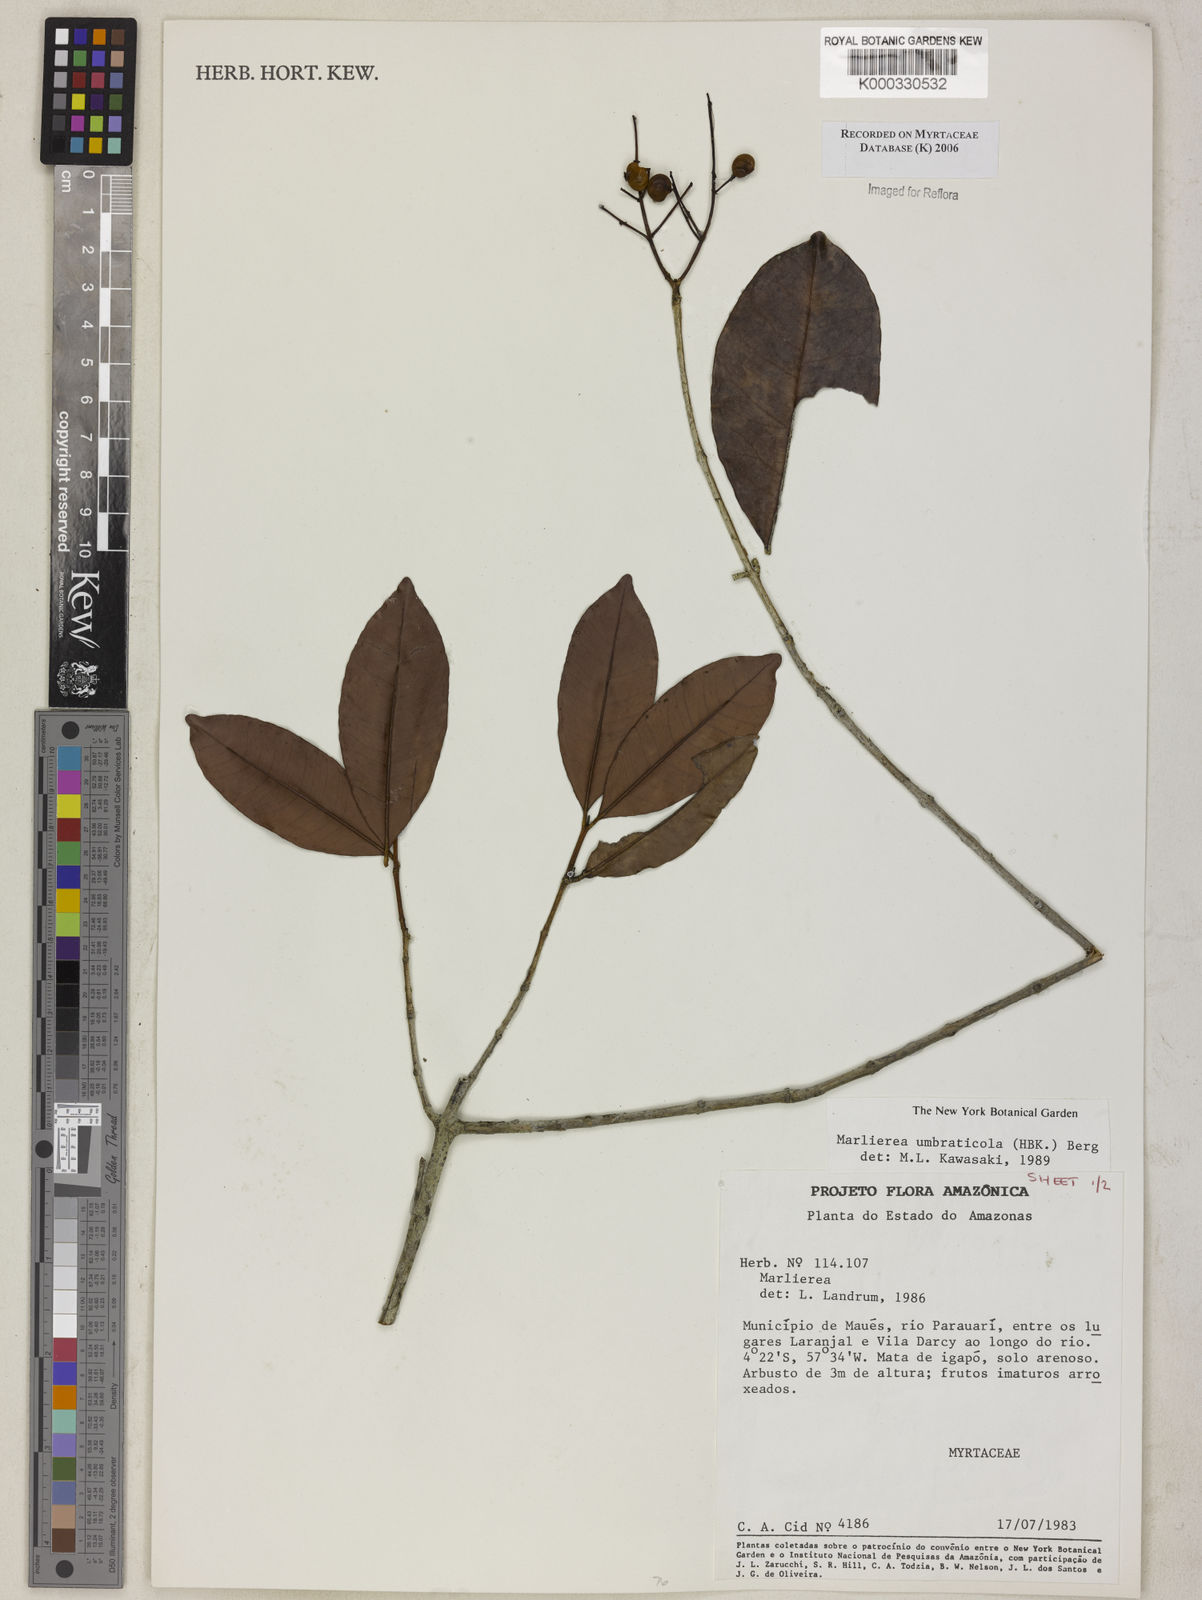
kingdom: Plantae
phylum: Tracheophyta
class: Magnoliopsida
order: Myrtales
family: Myrtaceae
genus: Myrcia
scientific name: Myrcia umbraticola
